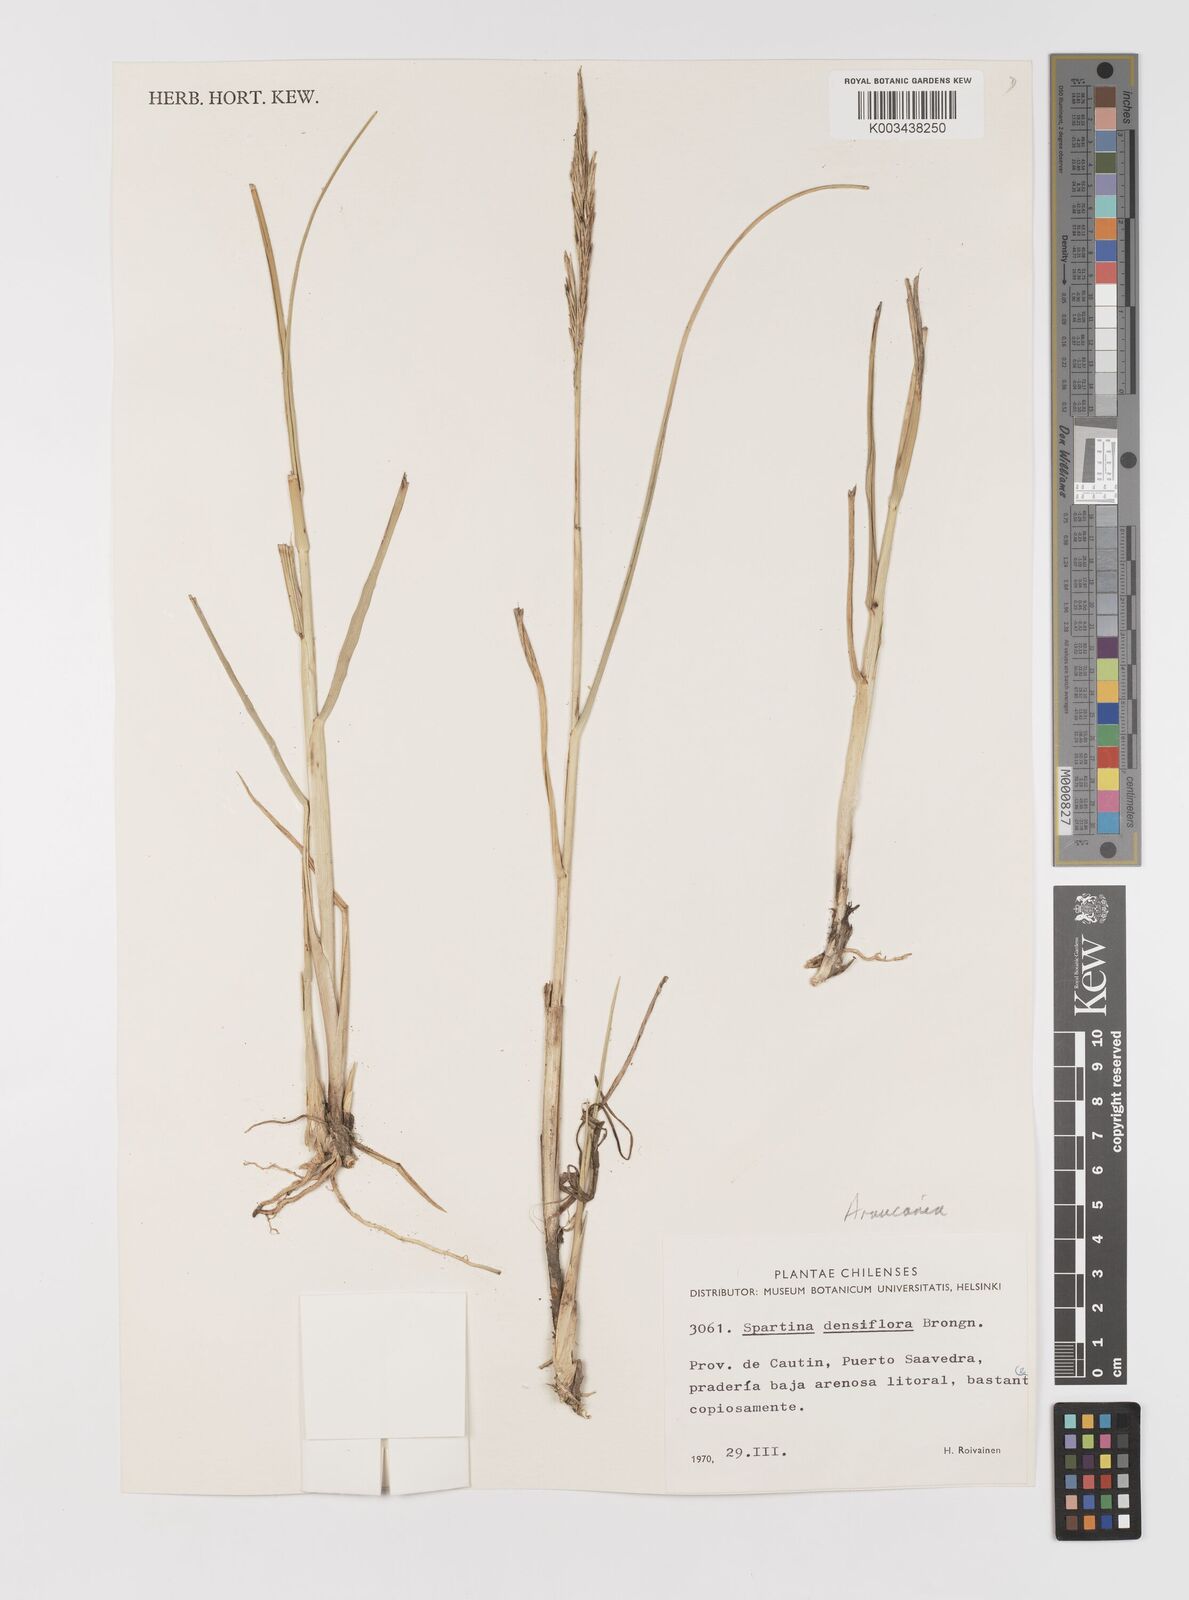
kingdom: Plantae
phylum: Tracheophyta
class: Liliopsida
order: Poales
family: Poaceae
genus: Sporobolus
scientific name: Sporobolus montevidensis
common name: Montevideo dropseed
